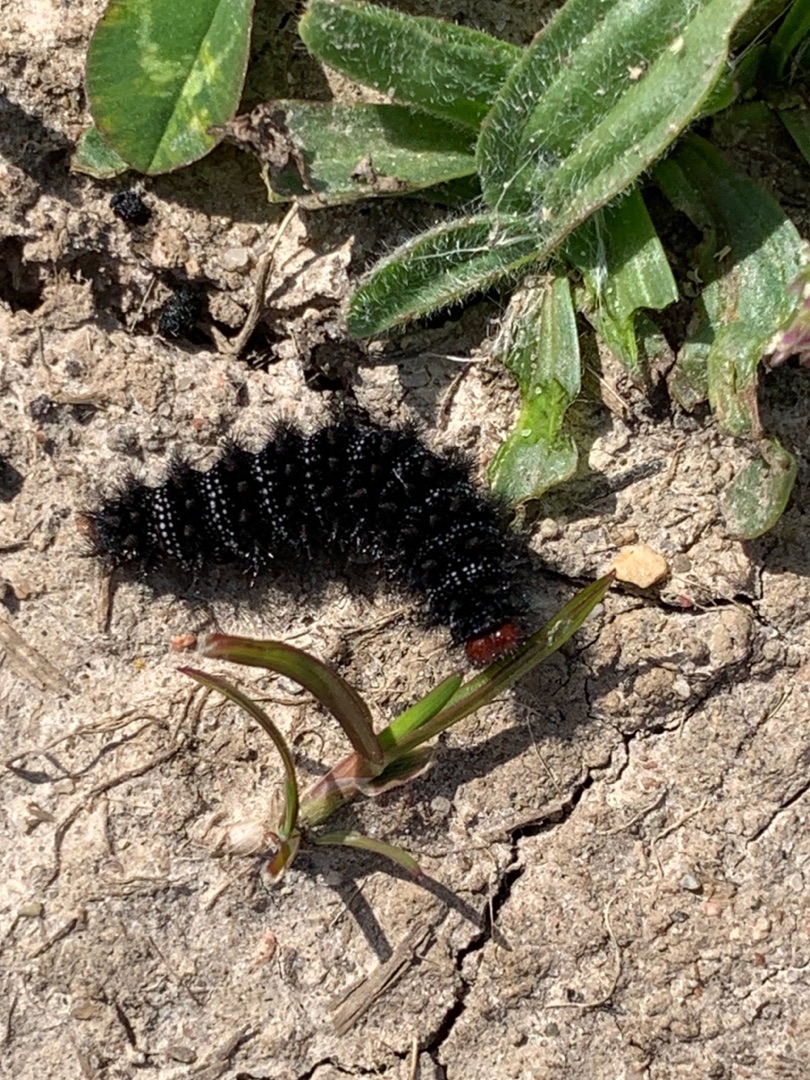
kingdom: Animalia
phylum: Arthropoda
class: Insecta
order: Lepidoptera
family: Nymphalidae
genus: Melitaea
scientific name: Melitaea cinxia
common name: Okkergul pletvinge
